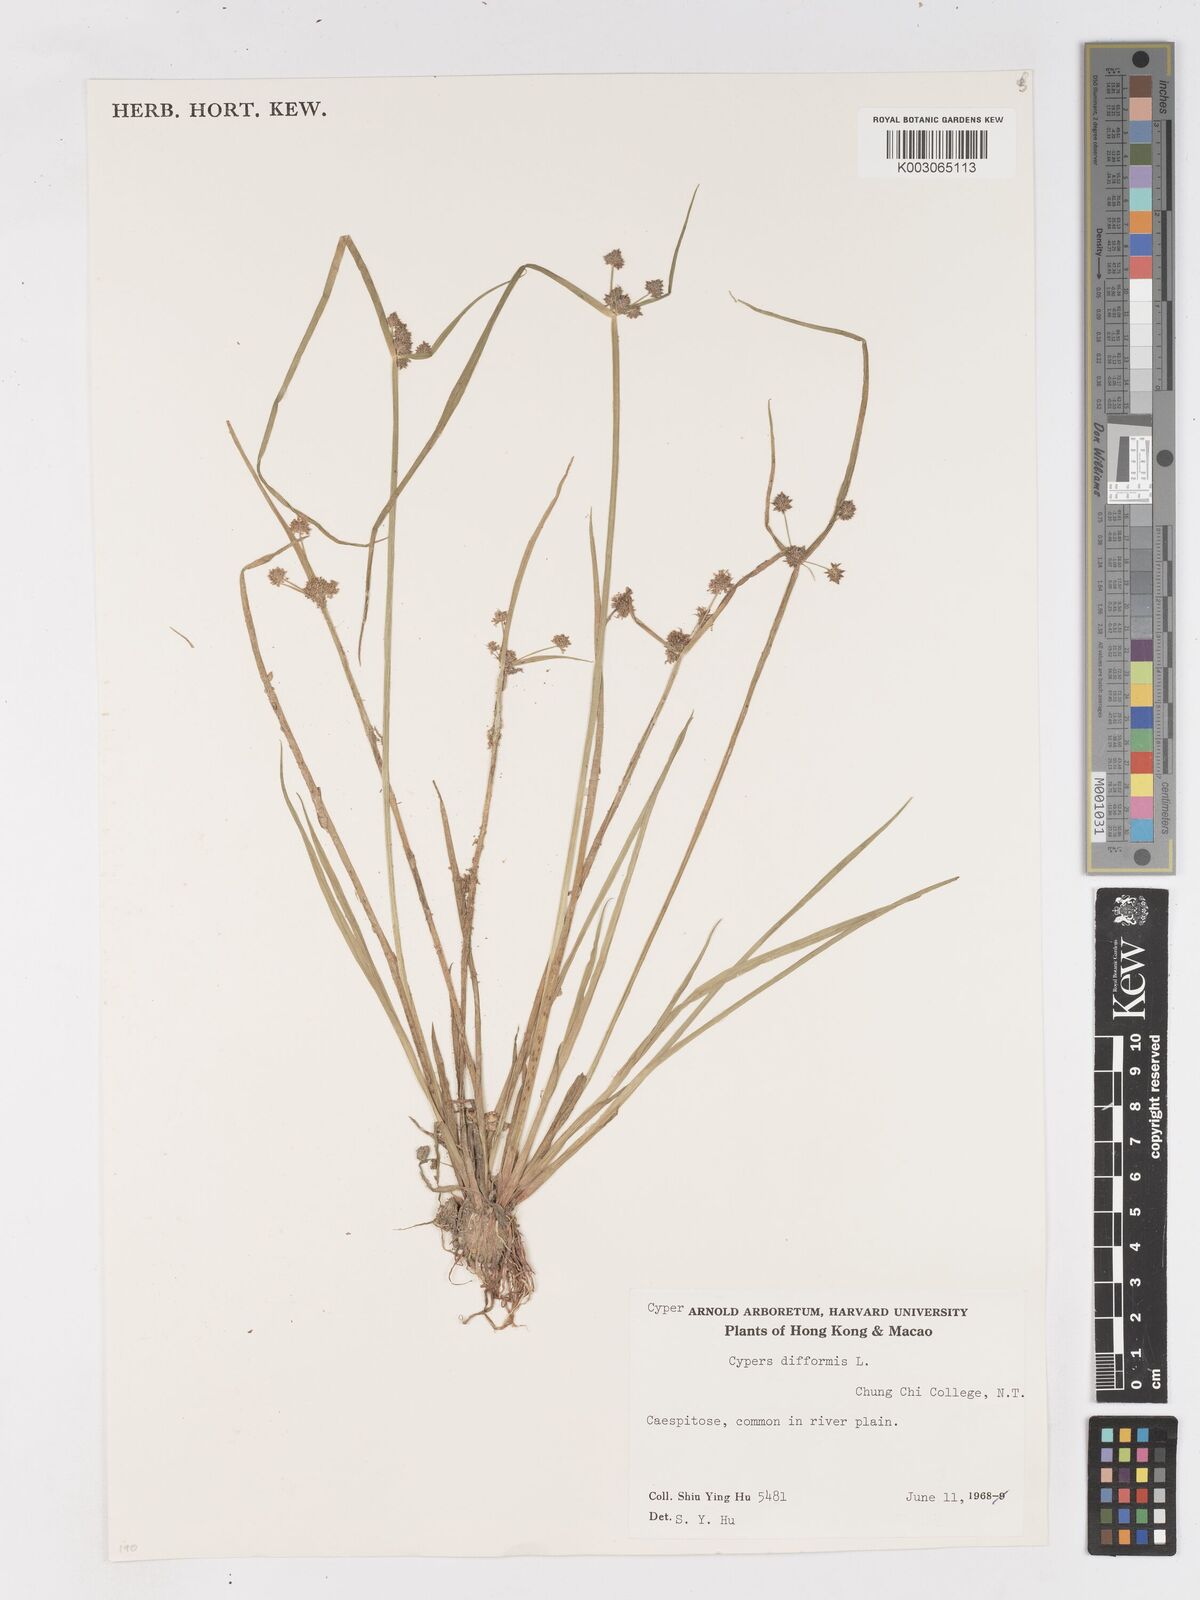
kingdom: Plantae
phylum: Tracheophyta
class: Liliopsida
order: Poales
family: Cyperaceae
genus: Cyperus
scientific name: Cyperus difformis
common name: Variable flatsedge
